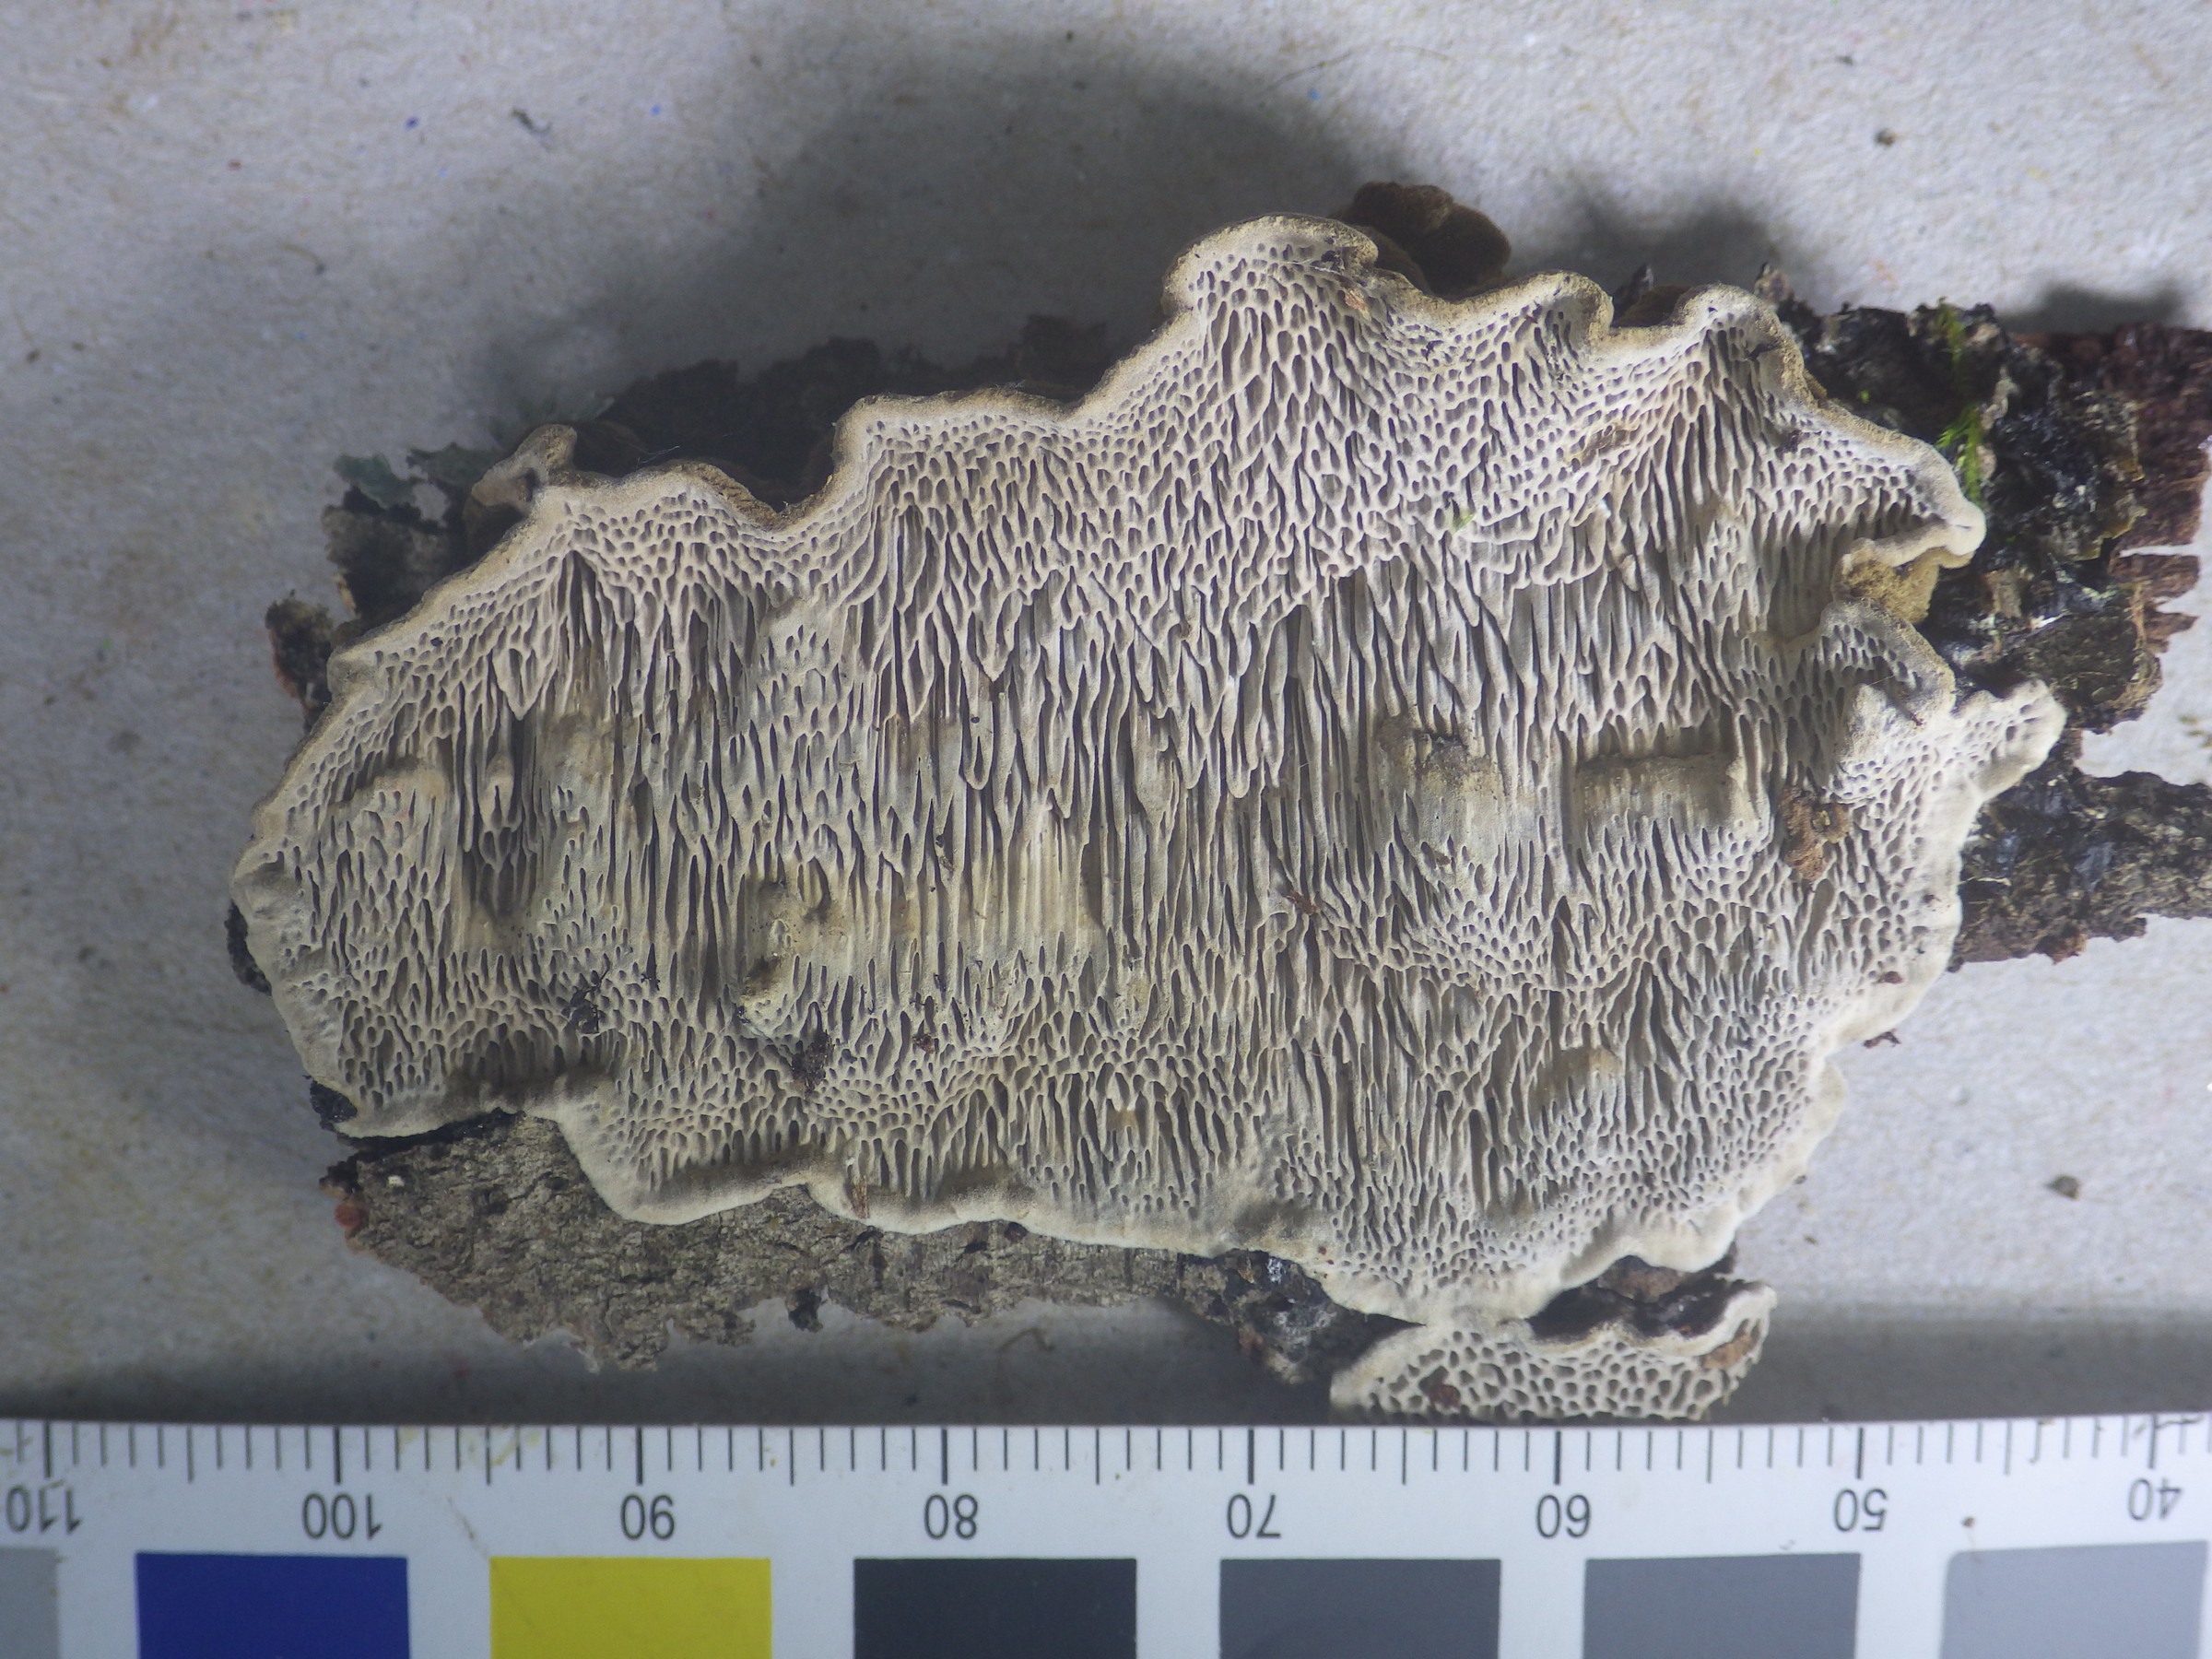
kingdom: Fungi
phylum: Basidiomycota
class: Agaricomycetes
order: Polyporales
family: Polyporaceae
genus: Podofomes
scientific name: Podofomes mollis
